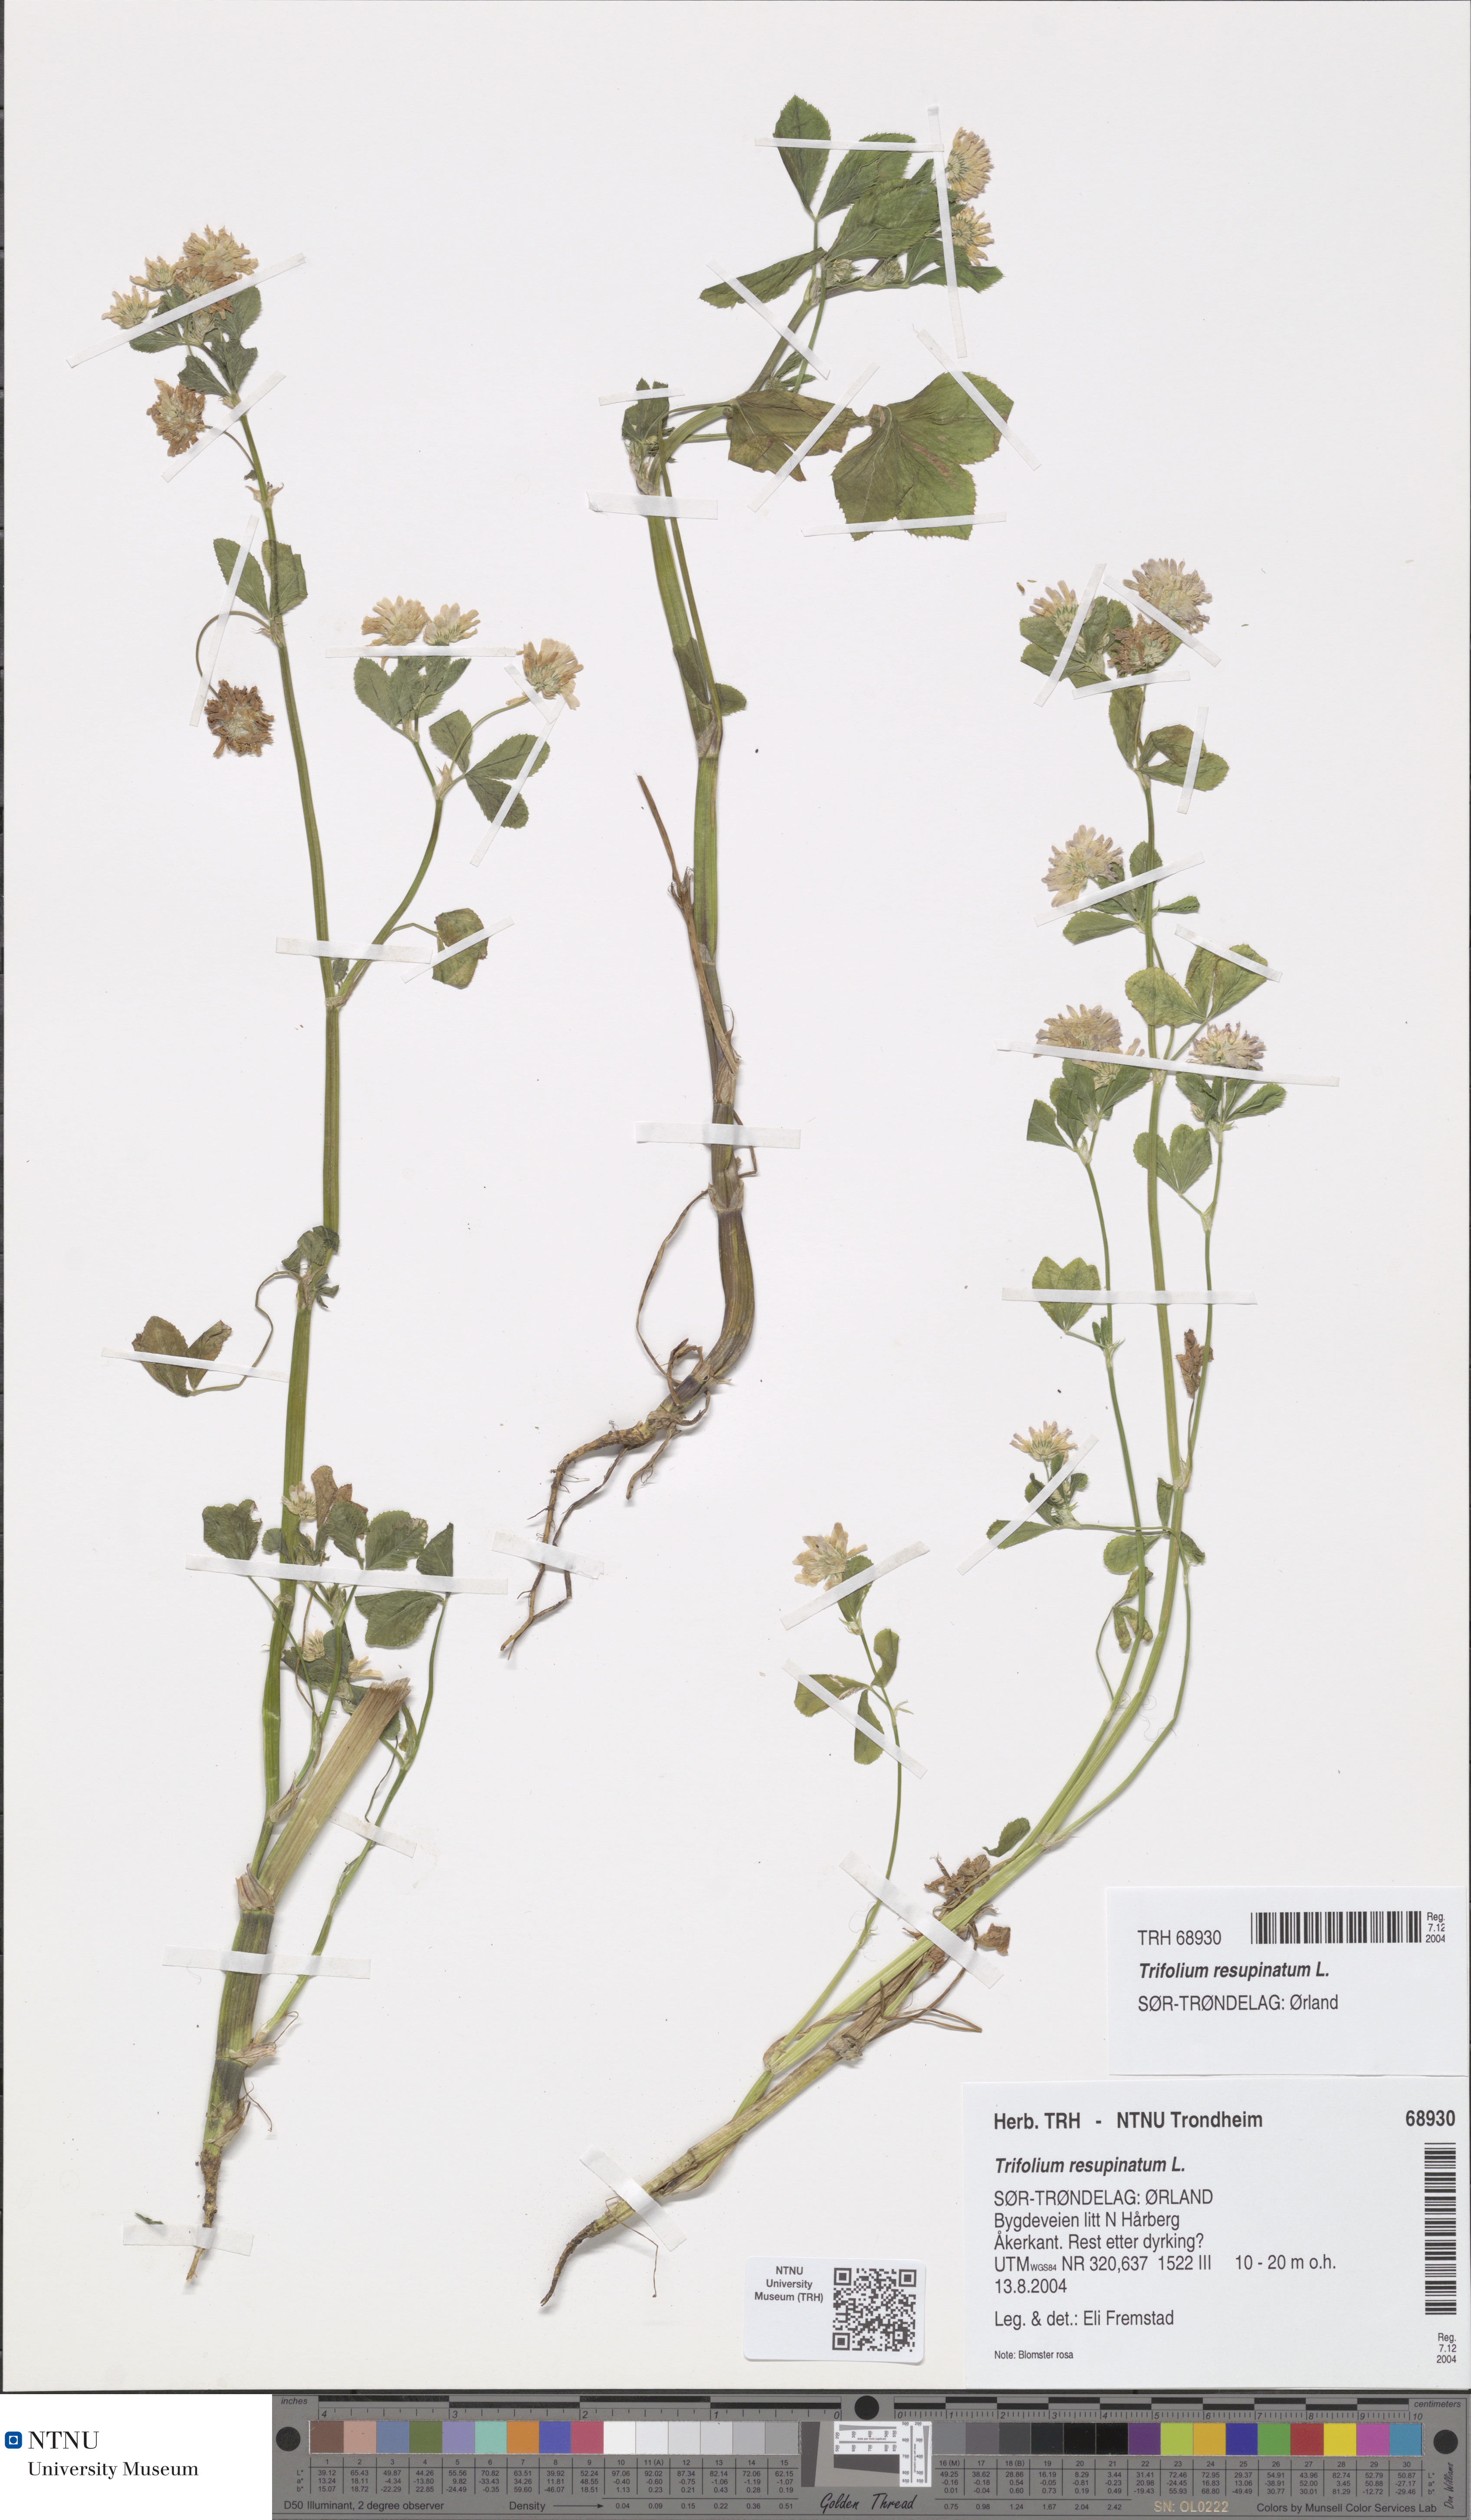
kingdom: Plantae
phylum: Tracheophyta
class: Magnoliopsida
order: Fabales
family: Fabaceae
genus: Trifolium
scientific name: Trifolium resupinatum
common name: Reversed clover
